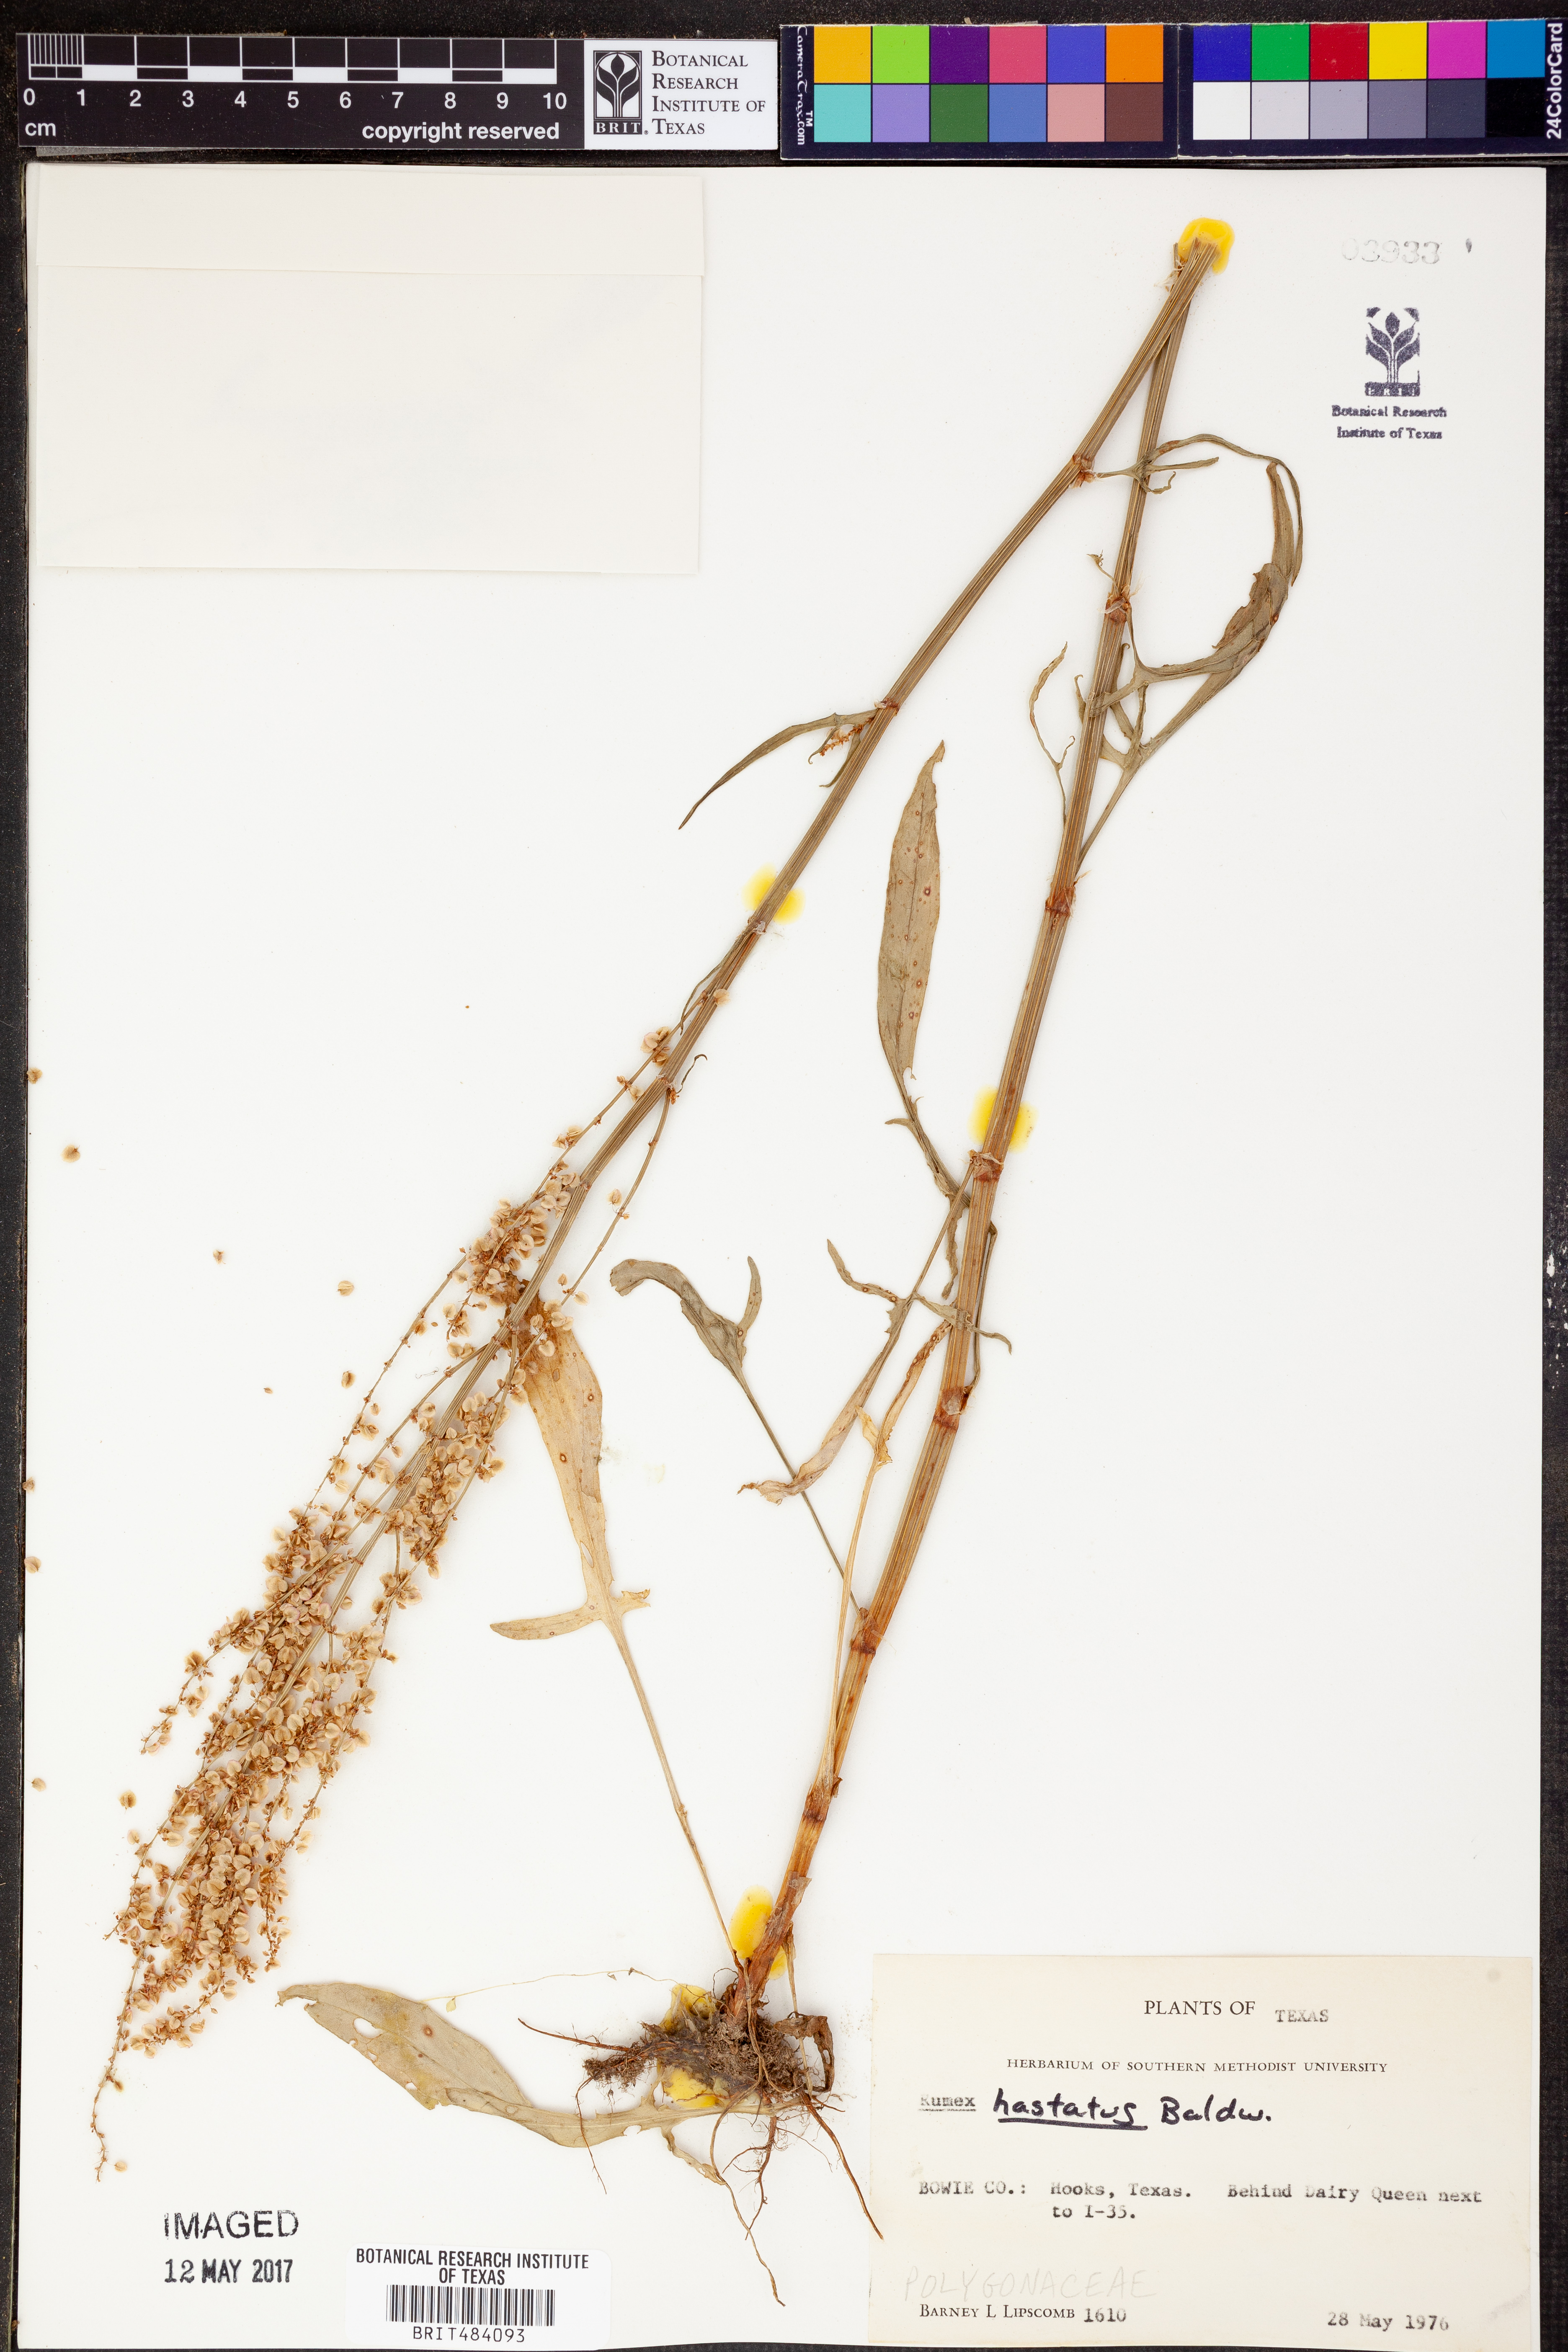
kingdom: Plantae
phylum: Tracheophyta
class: Magnoliopsida
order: Caryophyllales
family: Polygonaceae
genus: Rumex
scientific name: Rumex hastatulus
